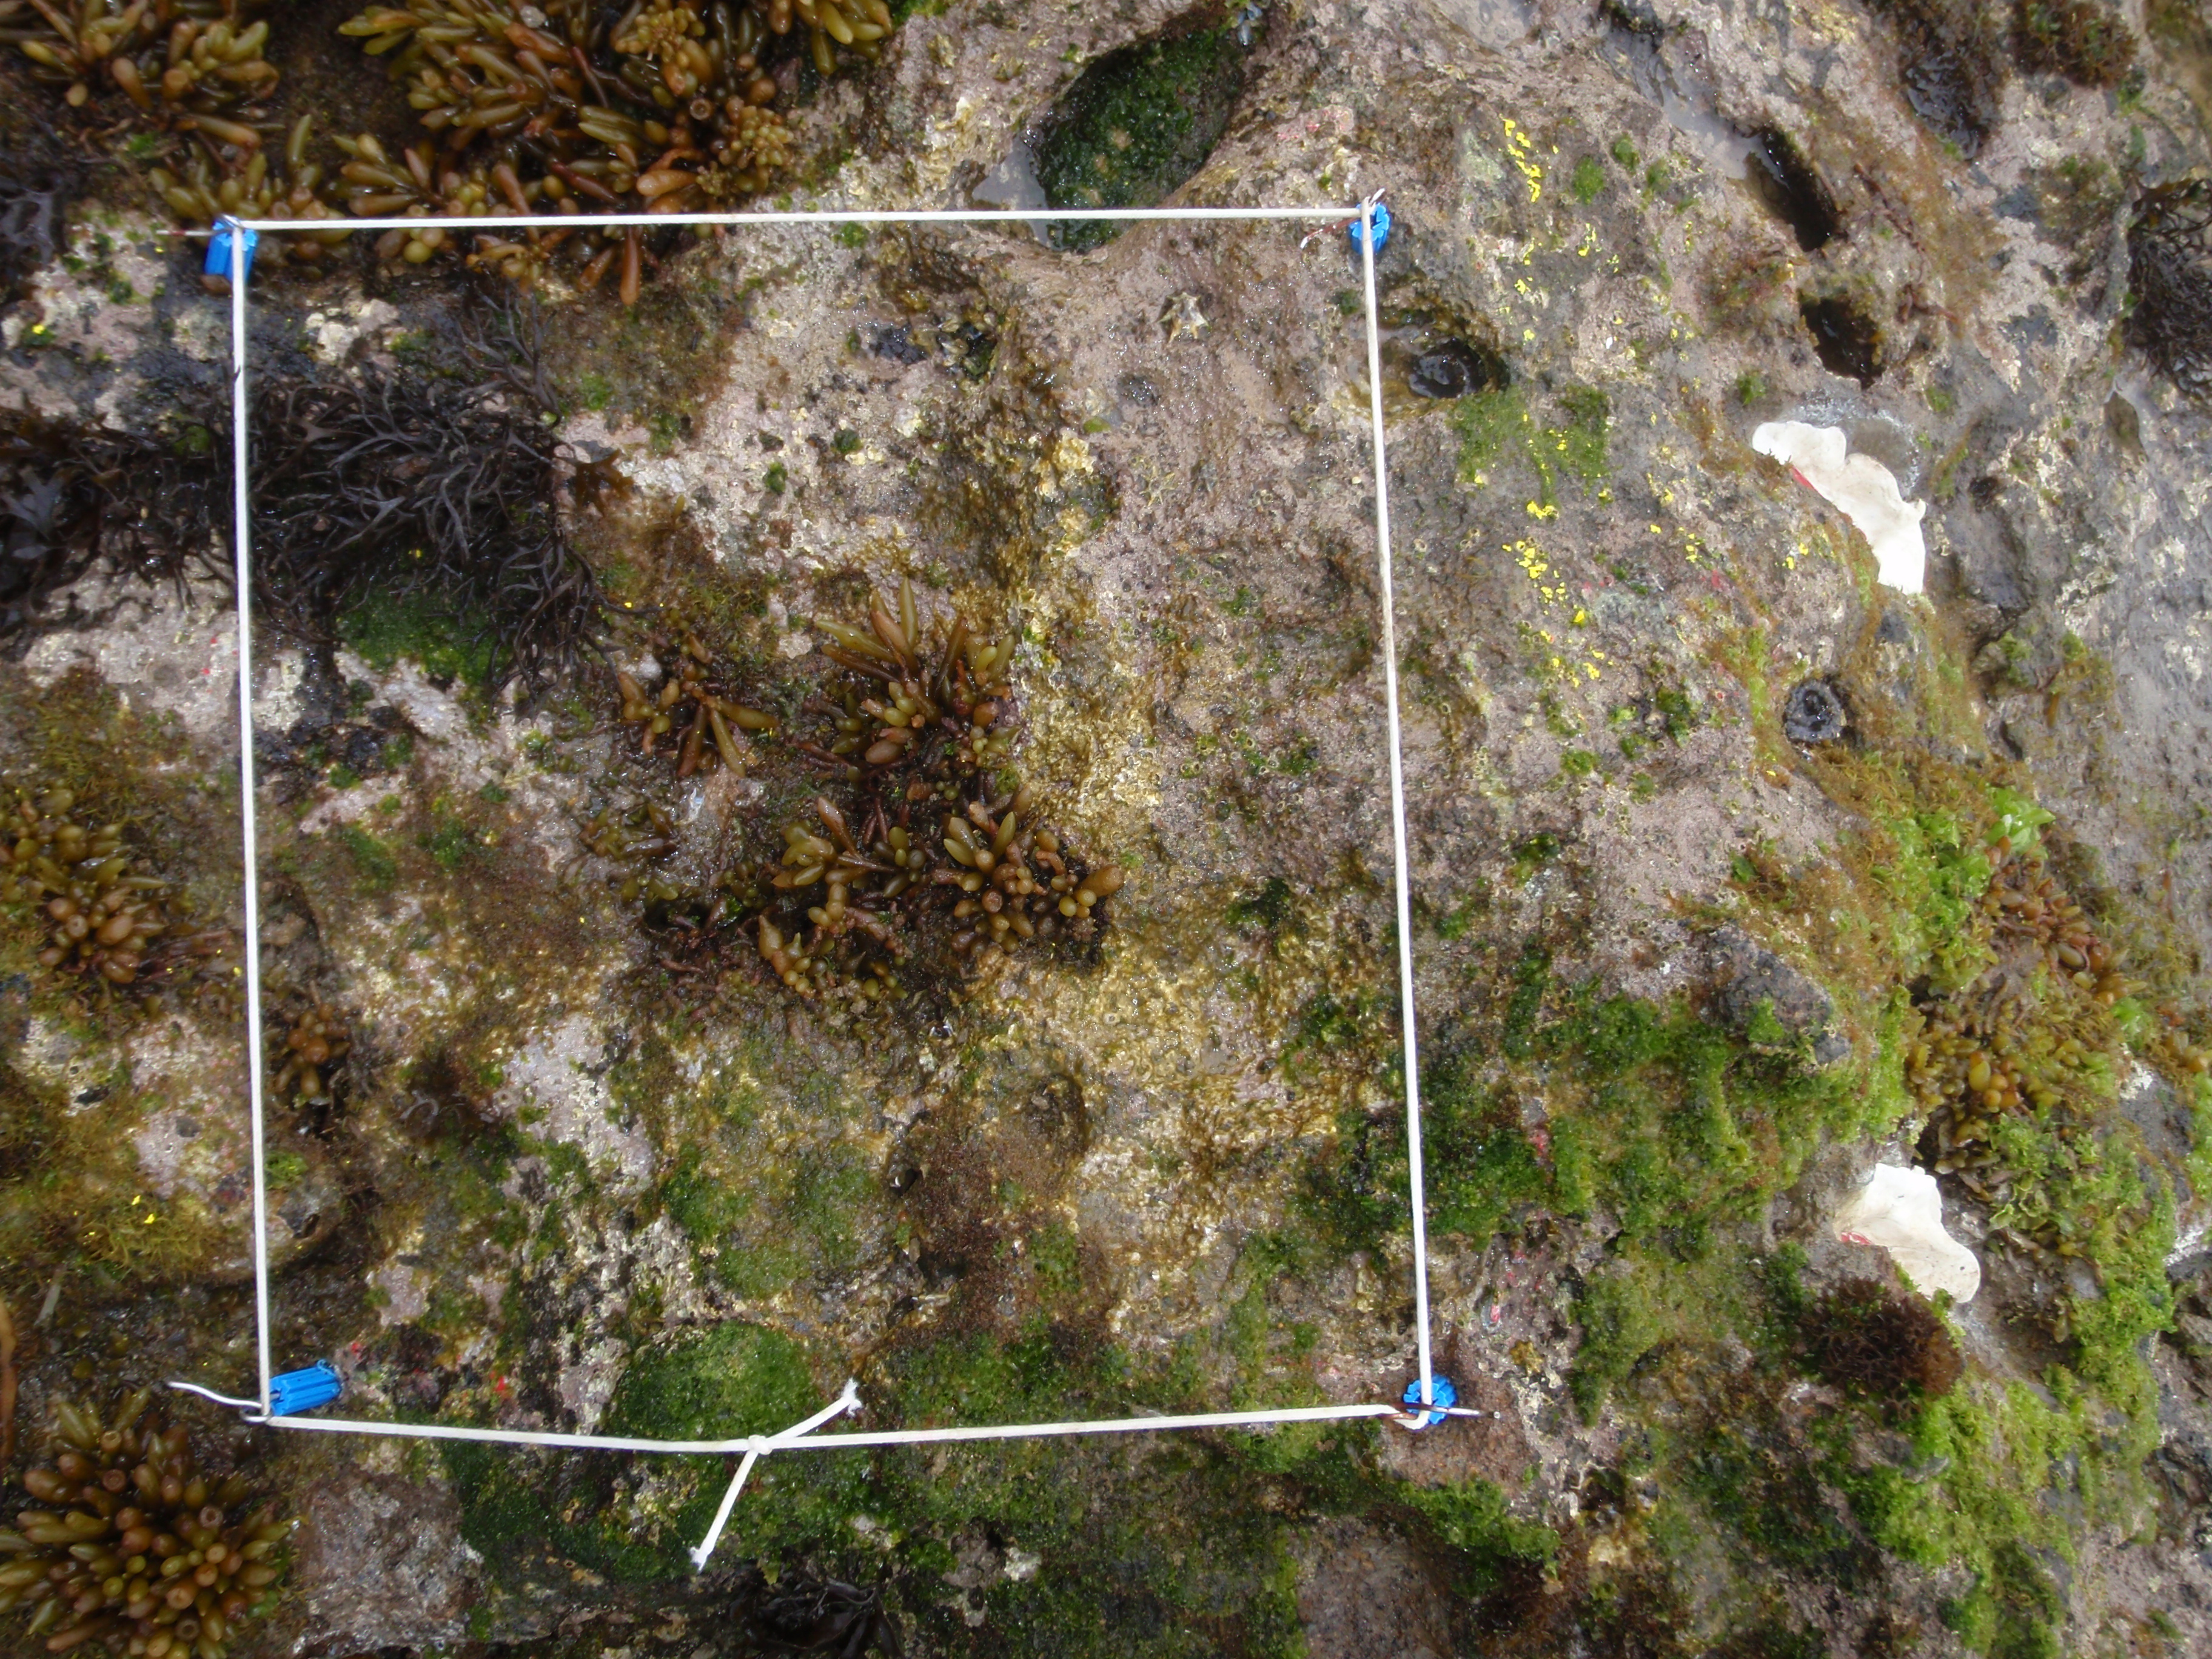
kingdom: Chromista
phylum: Ochrophyta
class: Phaeophyceae
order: Fucales
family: Sargassaceae
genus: Sargassum
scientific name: Sargassum fusiforme
